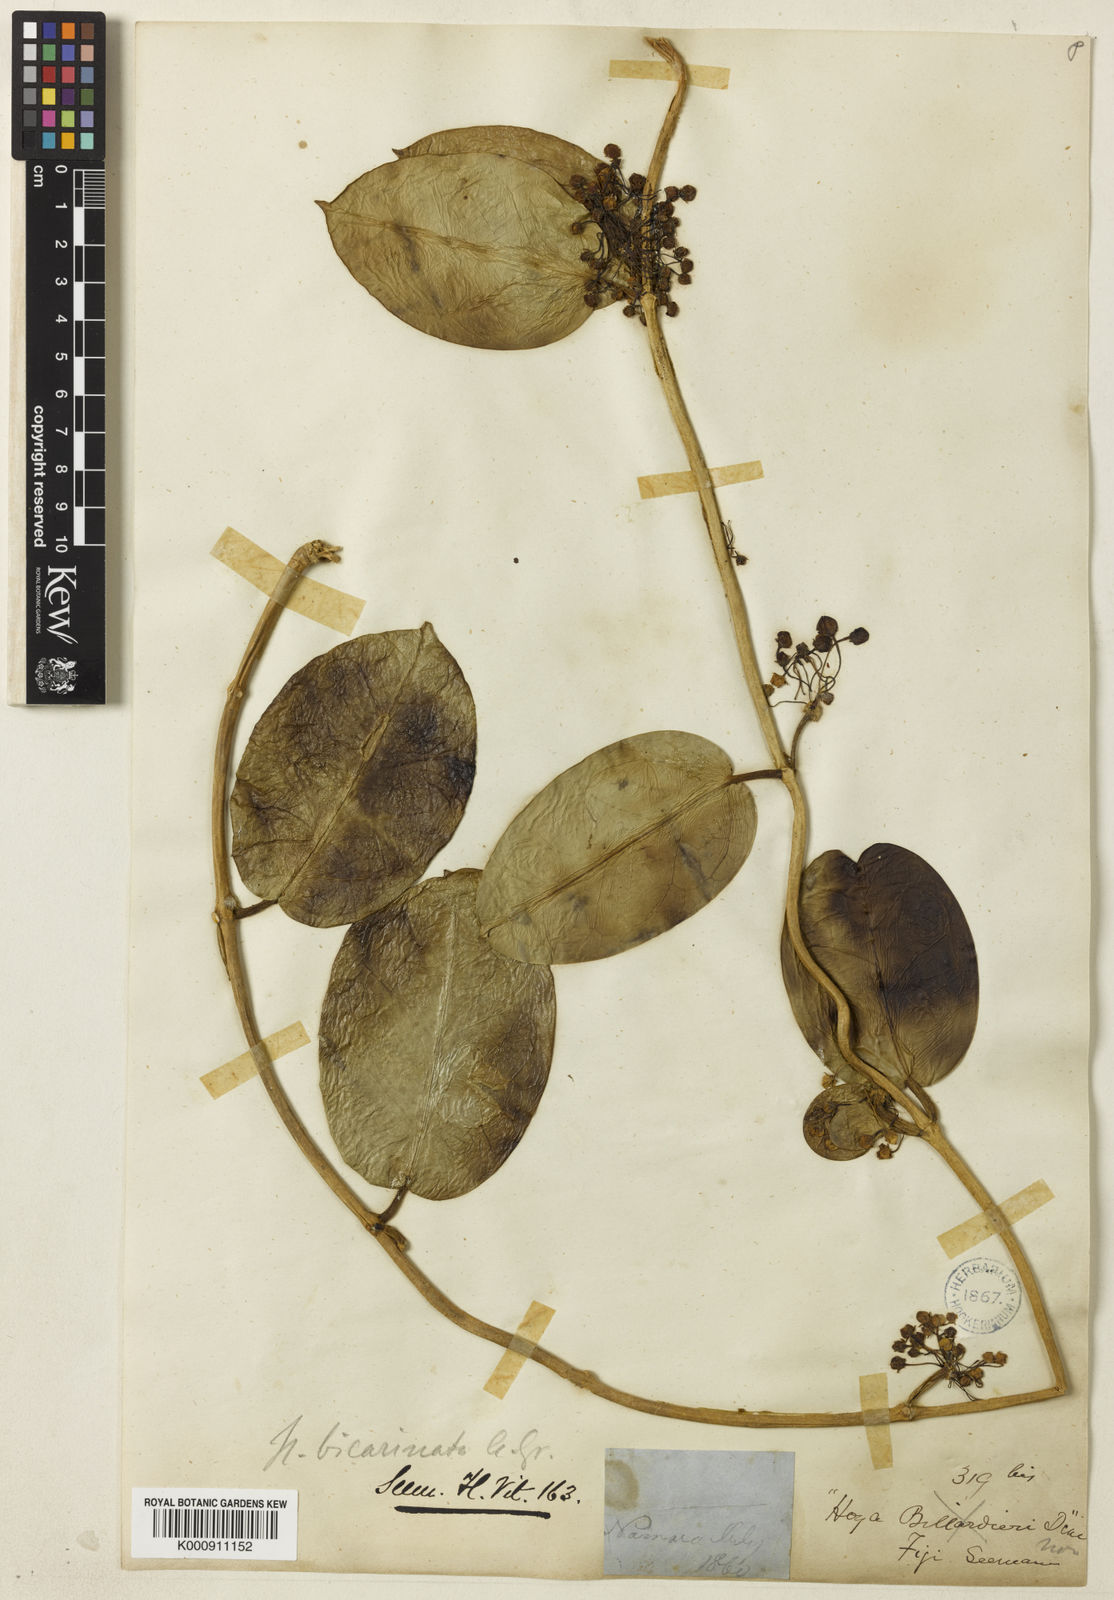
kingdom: Plantae
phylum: Tracheophyta
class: Magnoliopsida
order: Gentianales
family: Apocynaceae
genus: Hoya
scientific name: Hoya australis
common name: Wax flower
